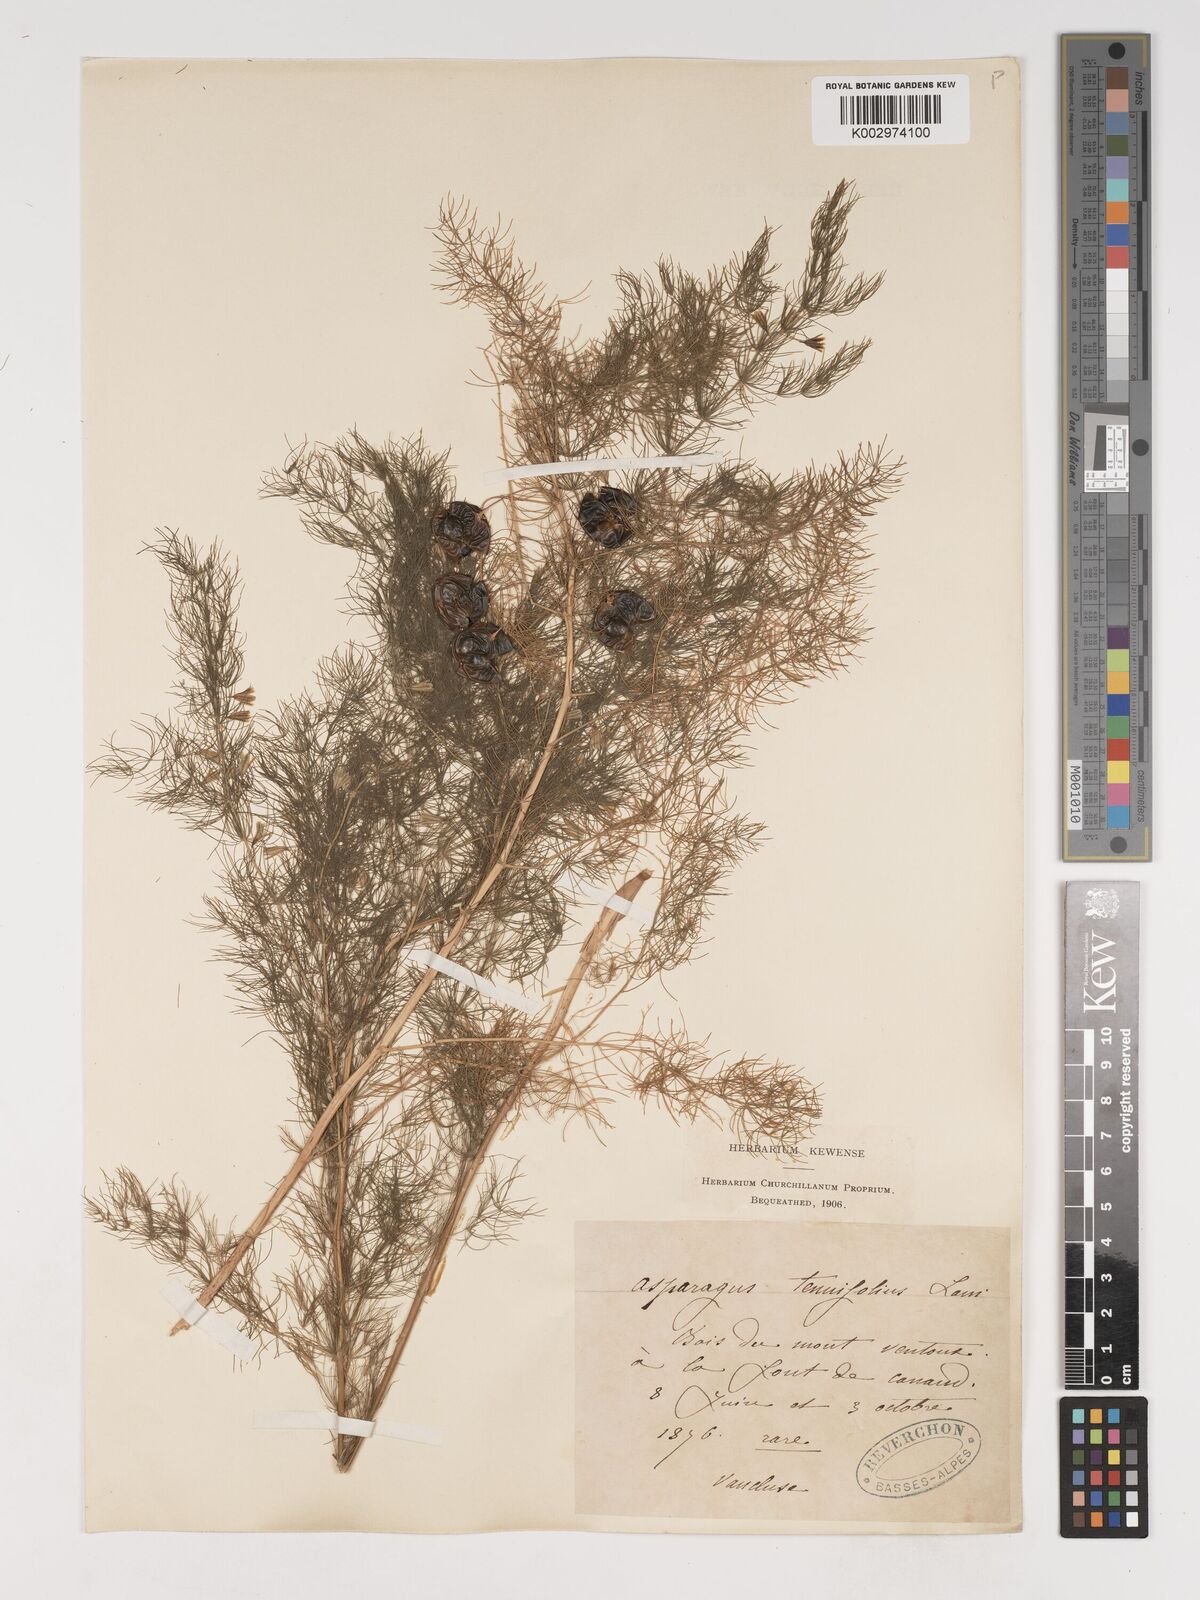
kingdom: Plantae
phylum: Tracheophyta
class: Liliopsida
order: Asparagales
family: Asparagaceae
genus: Asparagus
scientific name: Asparagus tenuifolius
